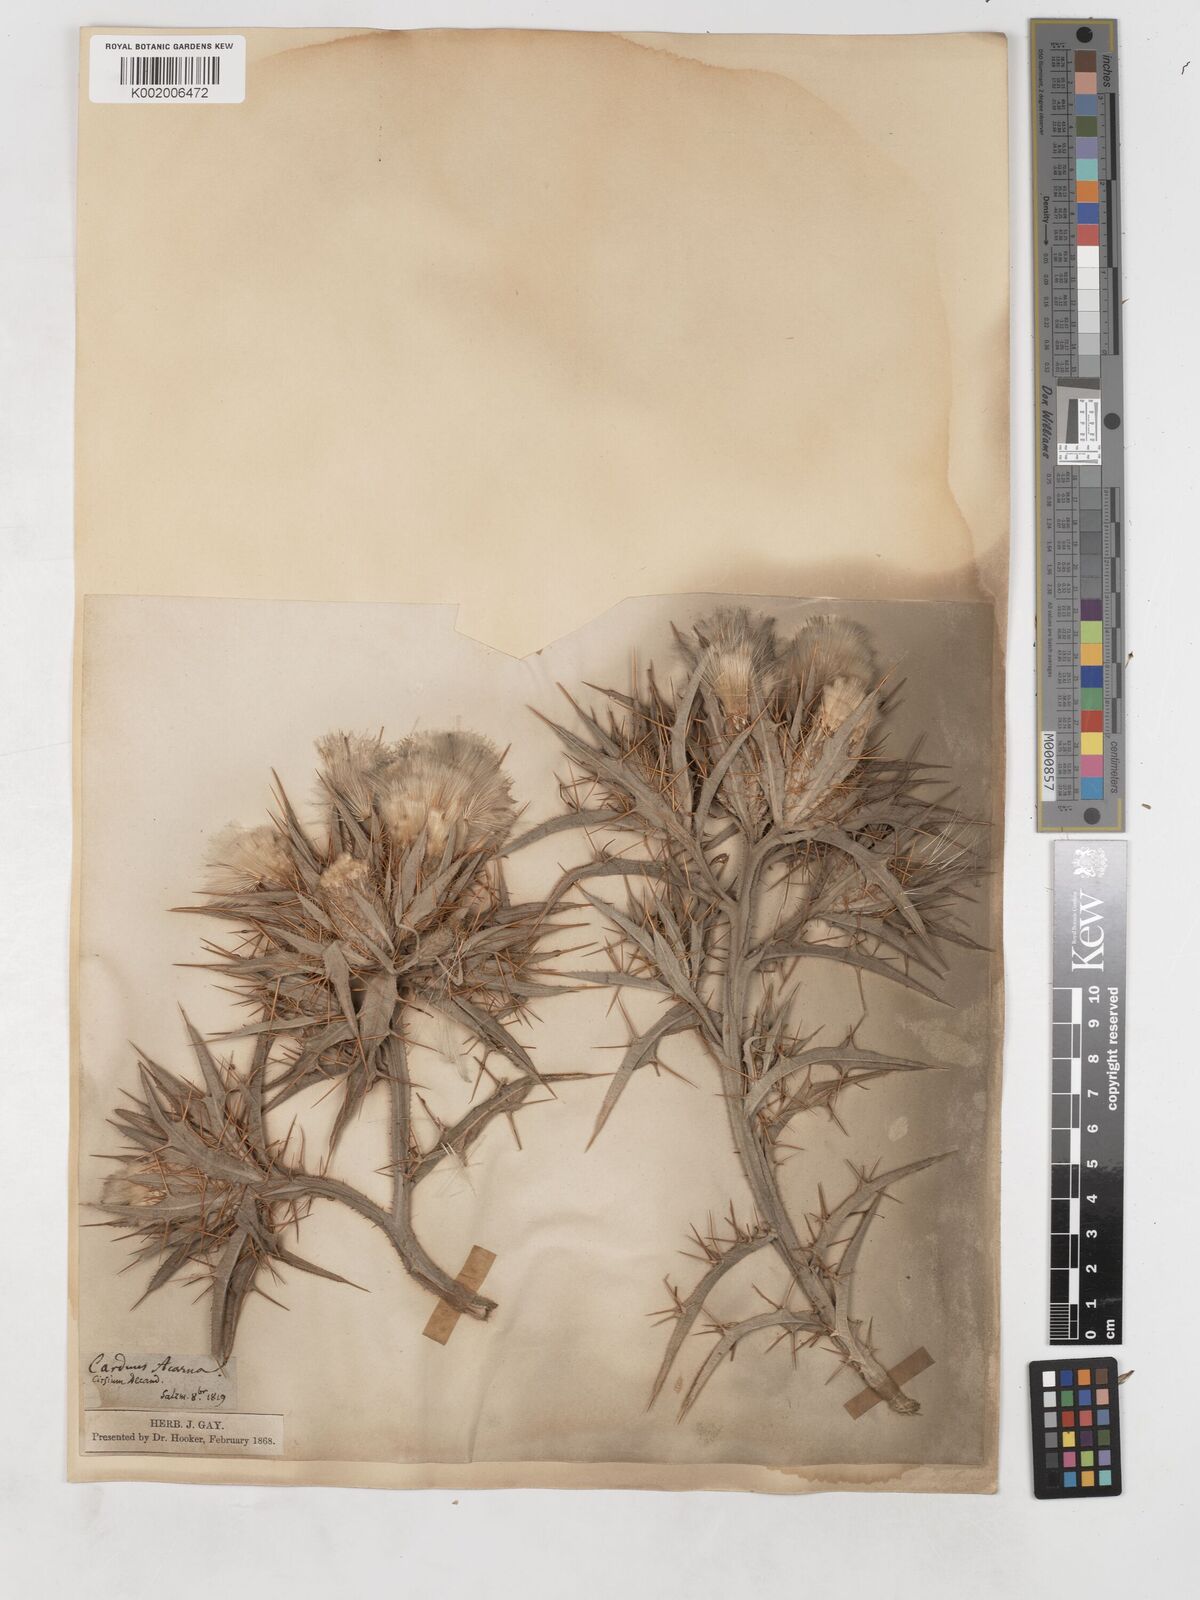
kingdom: Plantae
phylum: Tracheophyta
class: Magnoliopsida
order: Asterales
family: Asteraceae
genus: Picnomon
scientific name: Picnomon acarna
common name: Soldier thistle
